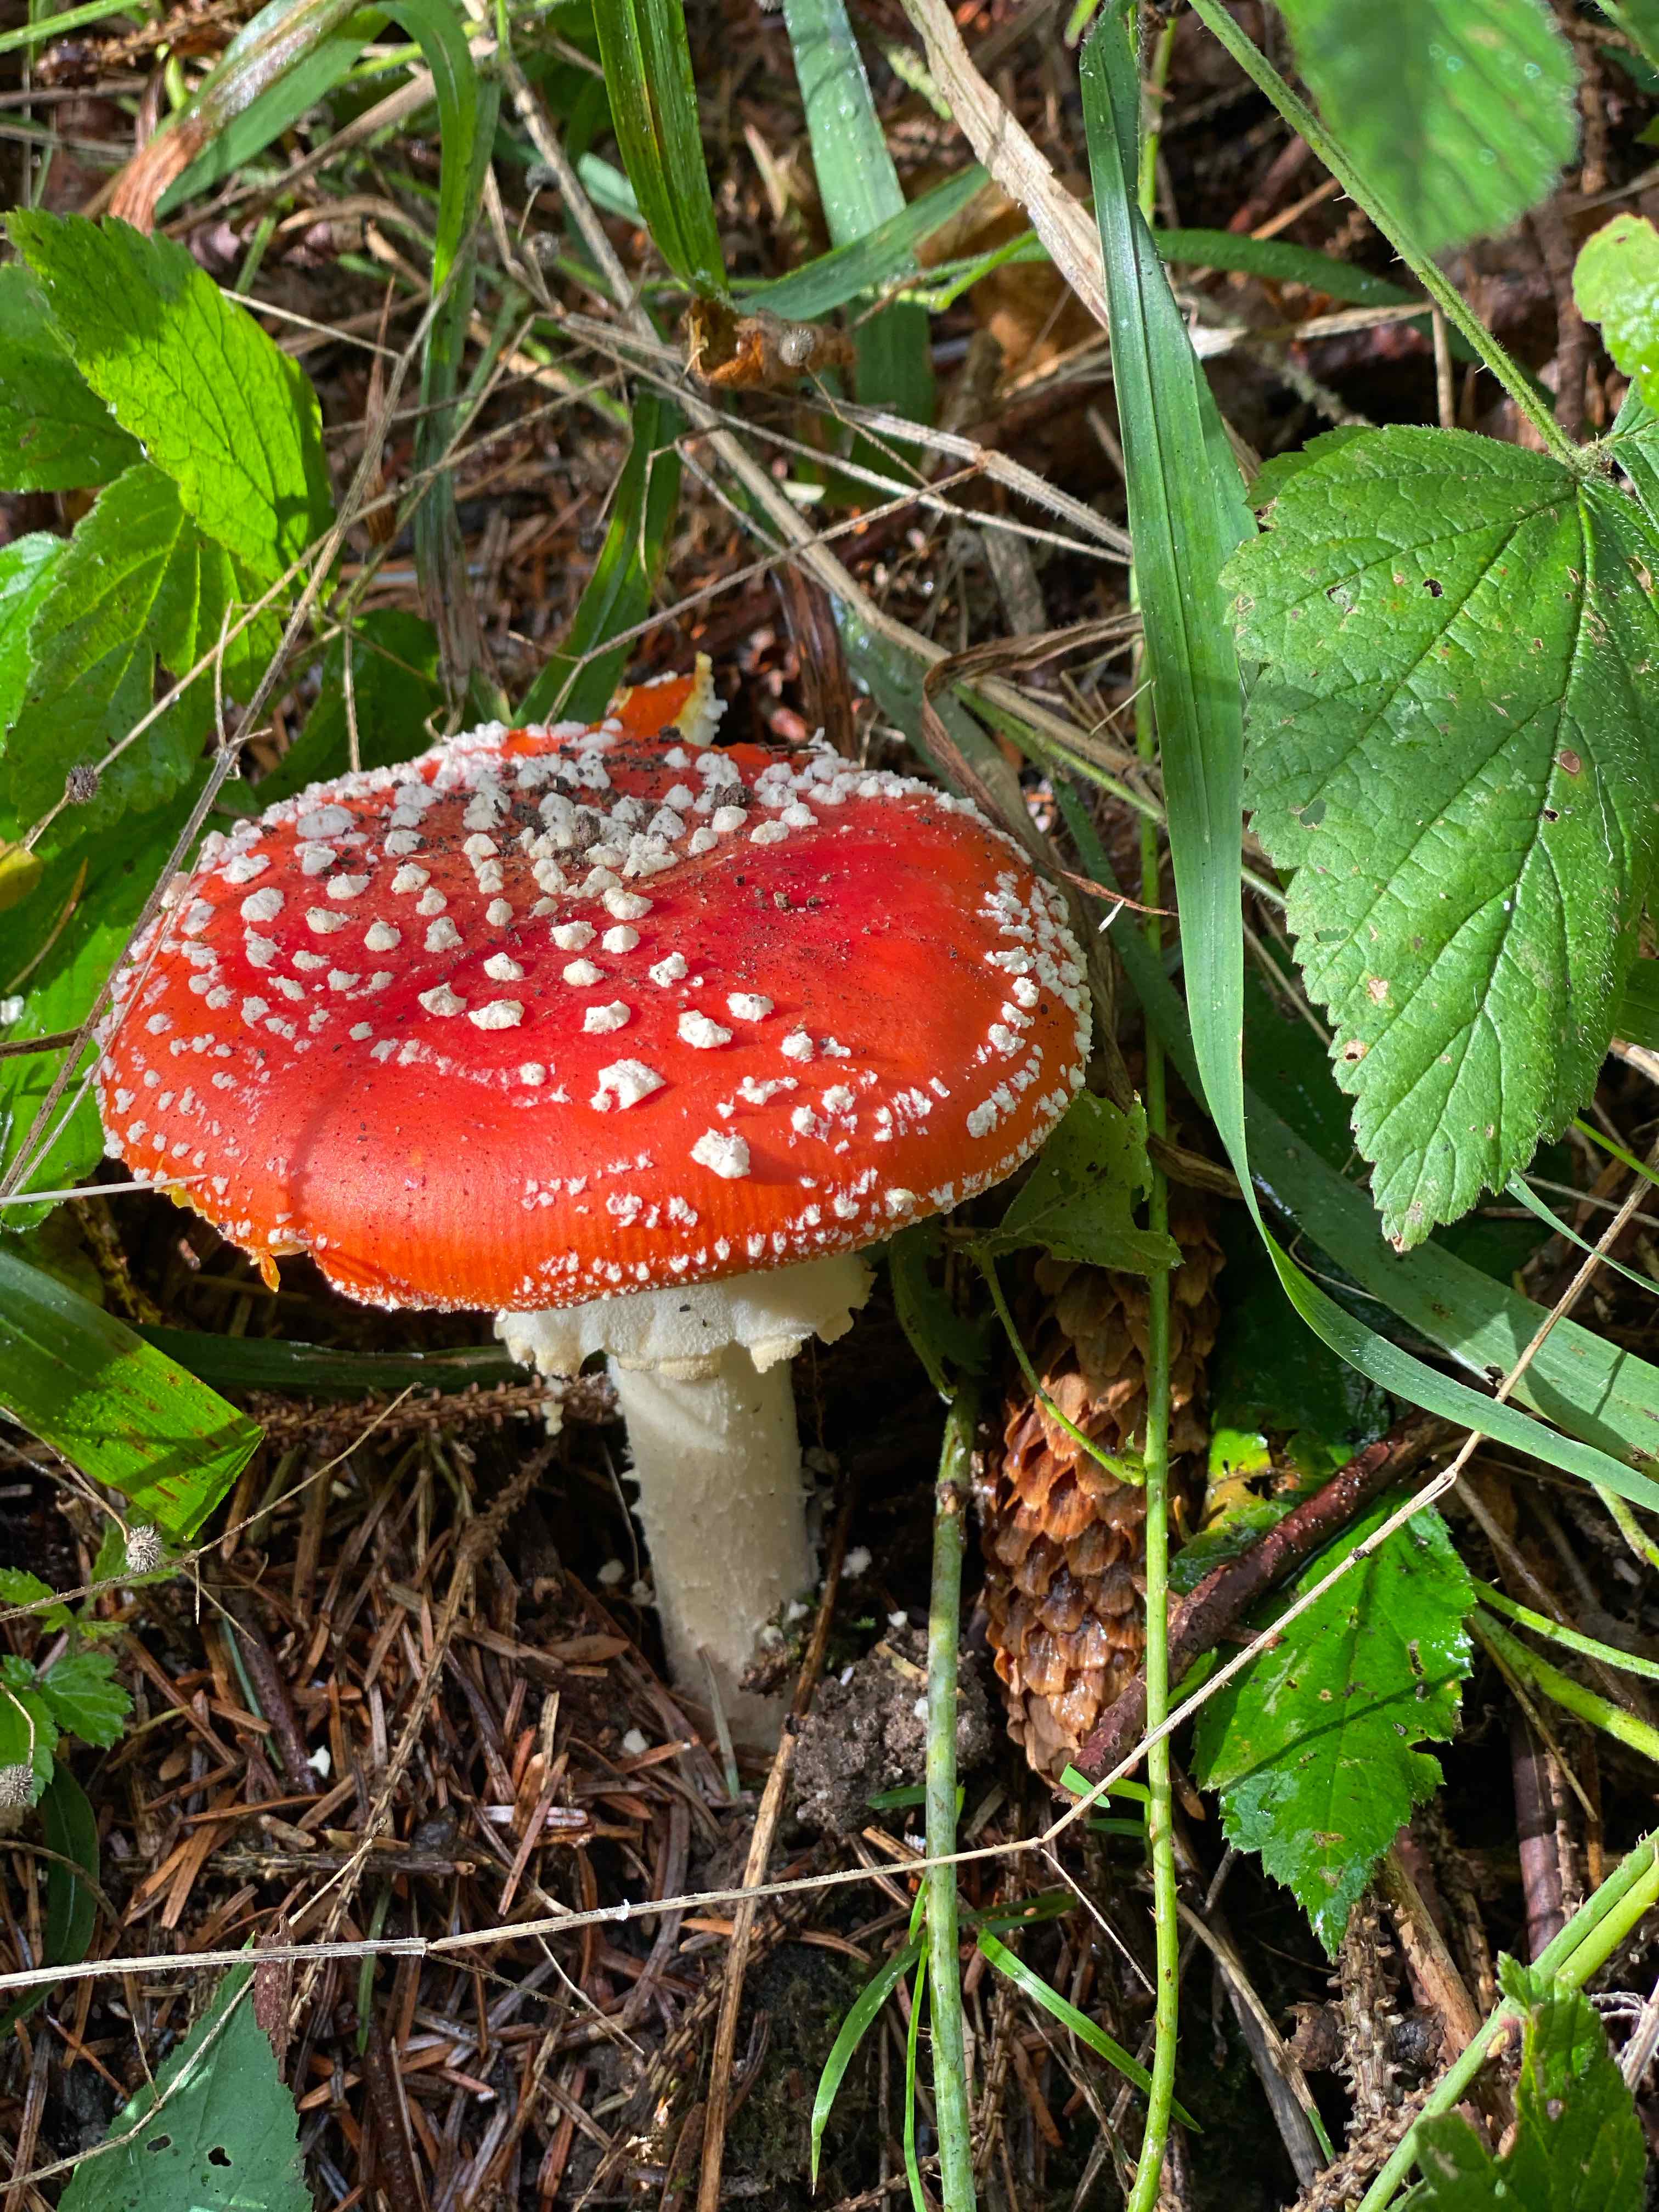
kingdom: Fungi
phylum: Basidiomycota
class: Agaricomycetes
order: Agaricales
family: Amanitaceae
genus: Amanita
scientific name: Amanita muscaria
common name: rød fluesvamp
